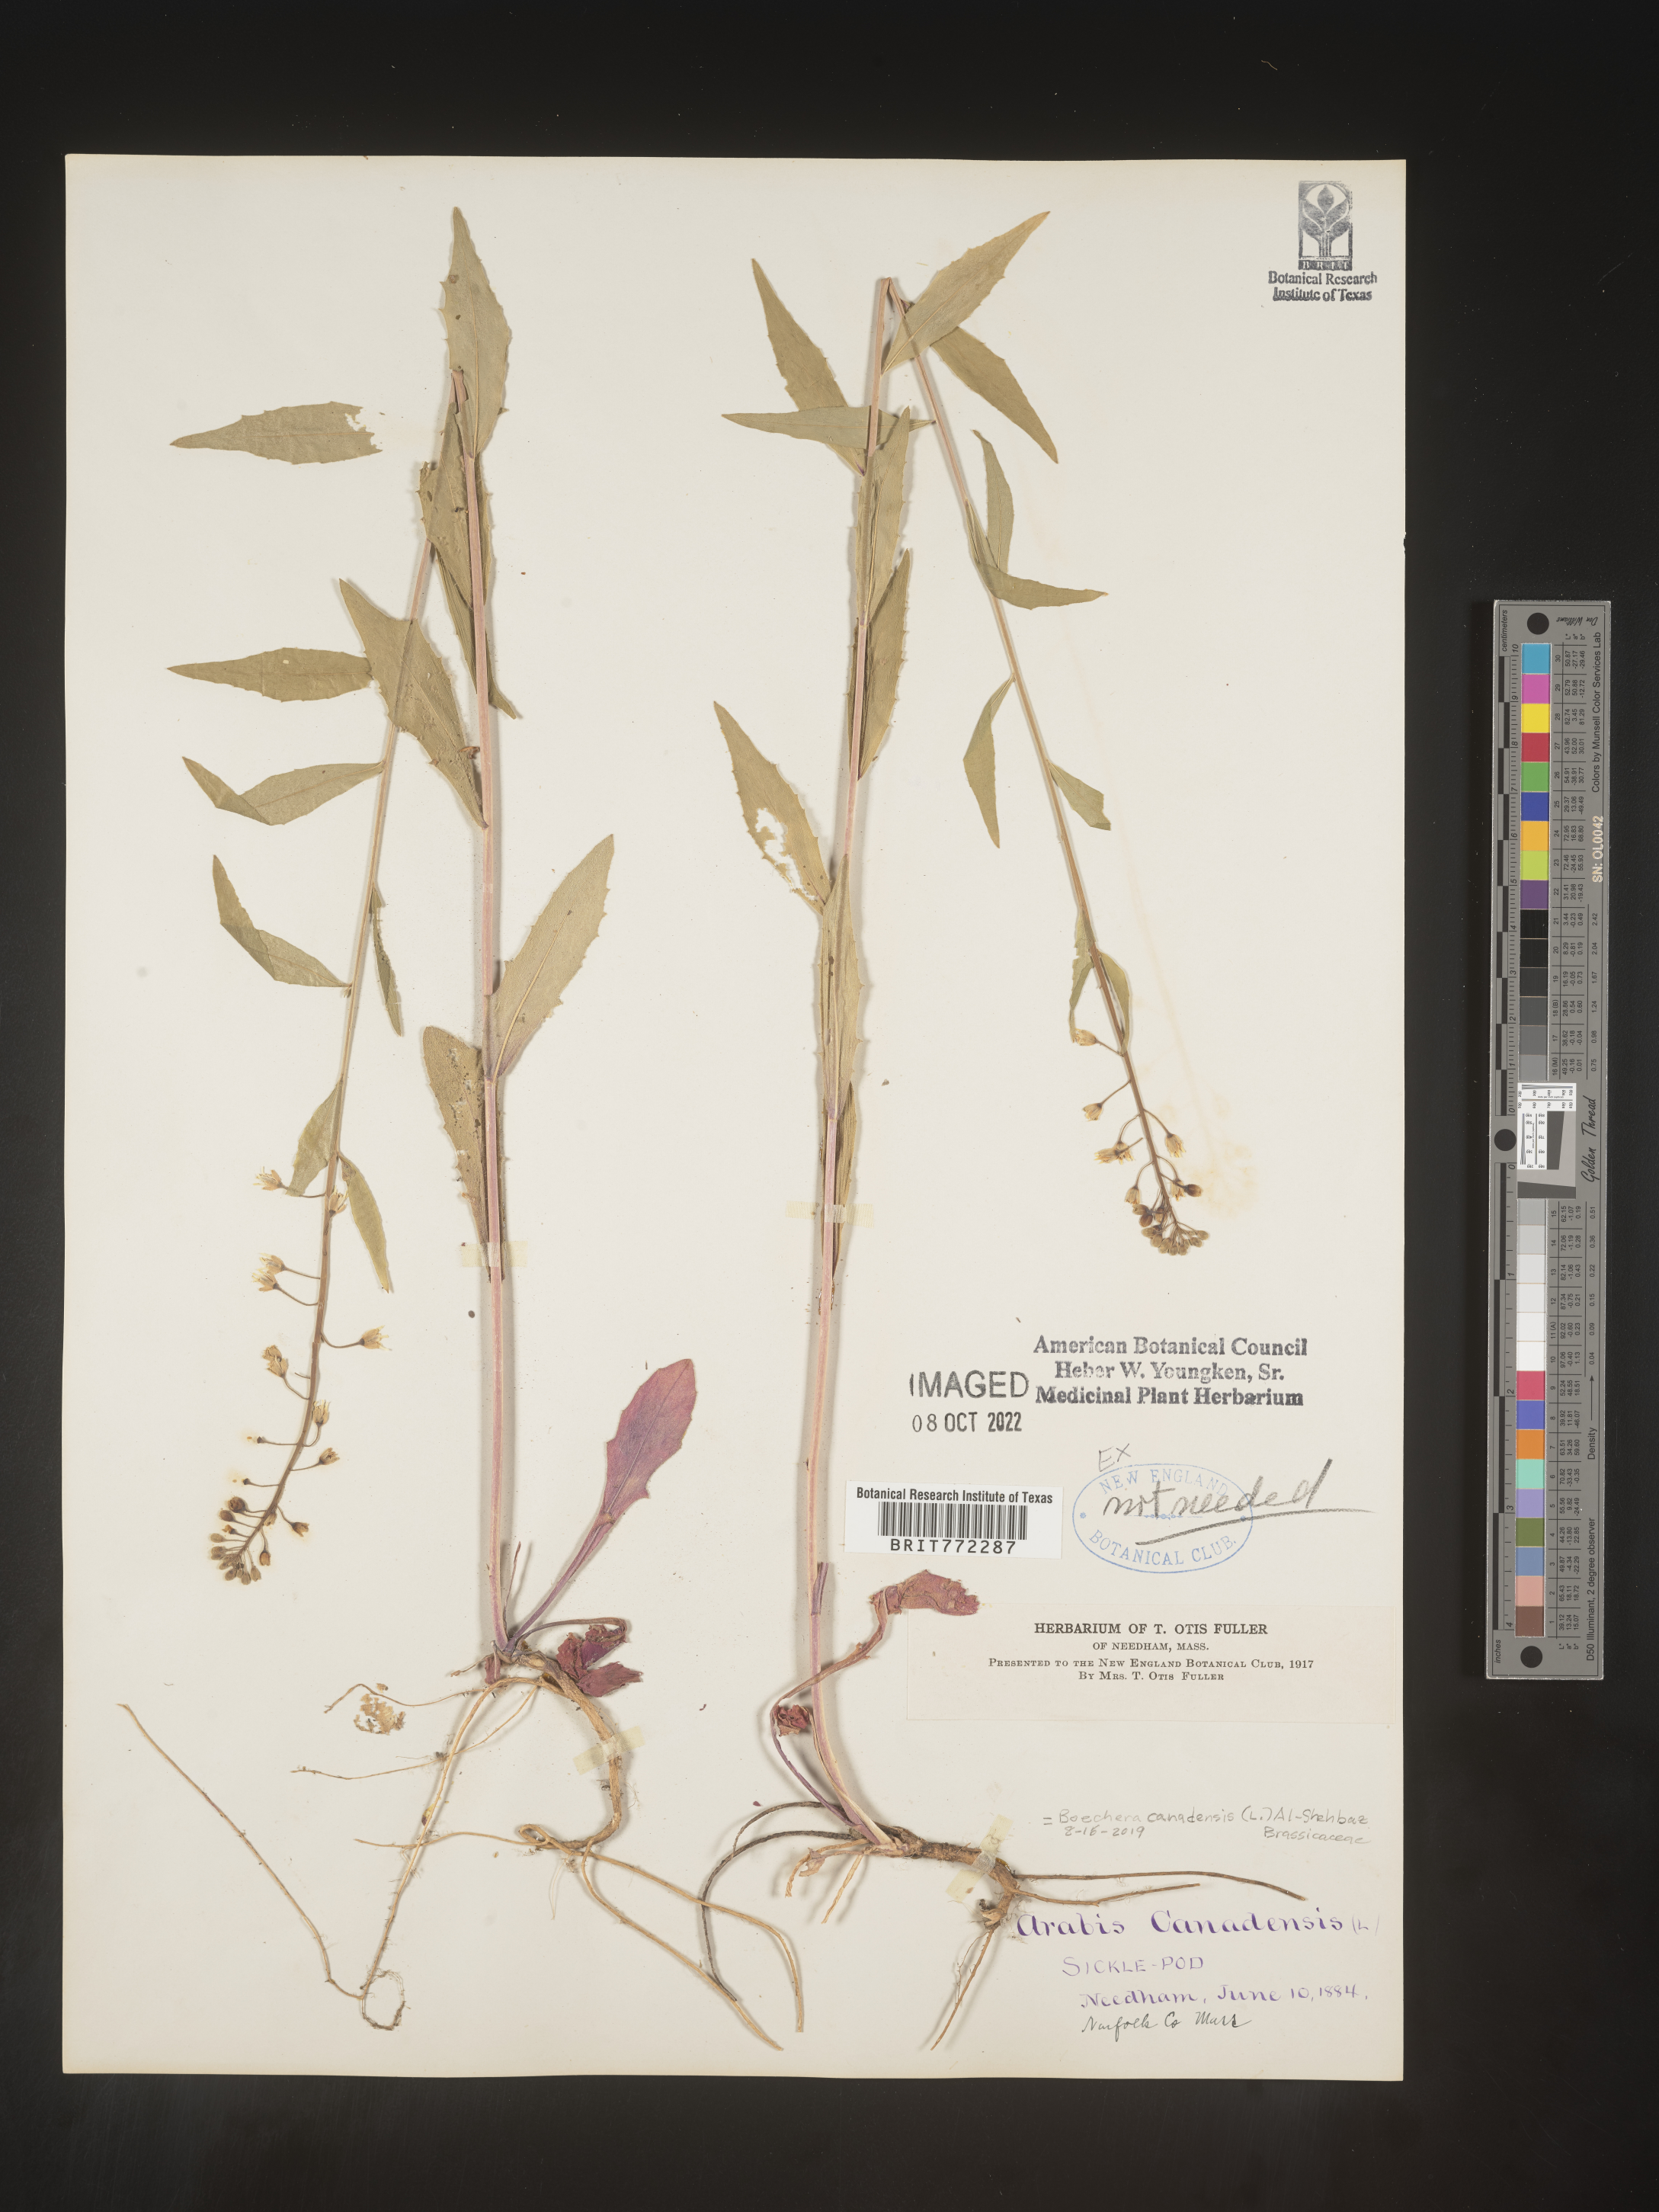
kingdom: Plantae
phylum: Tracheophyta
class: Magnoliopsida
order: Brassicales
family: Brassicaceae
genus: Boechera
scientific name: Boechera
